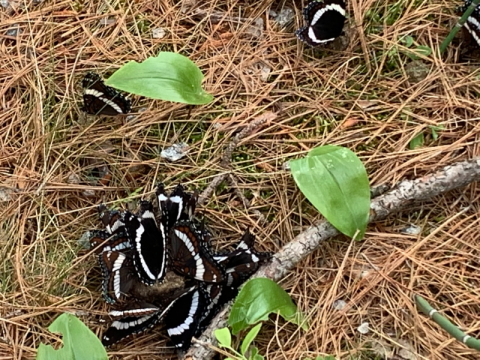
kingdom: Animalia
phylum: Arthropoda
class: Insecta
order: Lepidoptera
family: Nymphalidae
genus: Limenitis
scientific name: Limenitis arthemis
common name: Red-spotted Admiral
